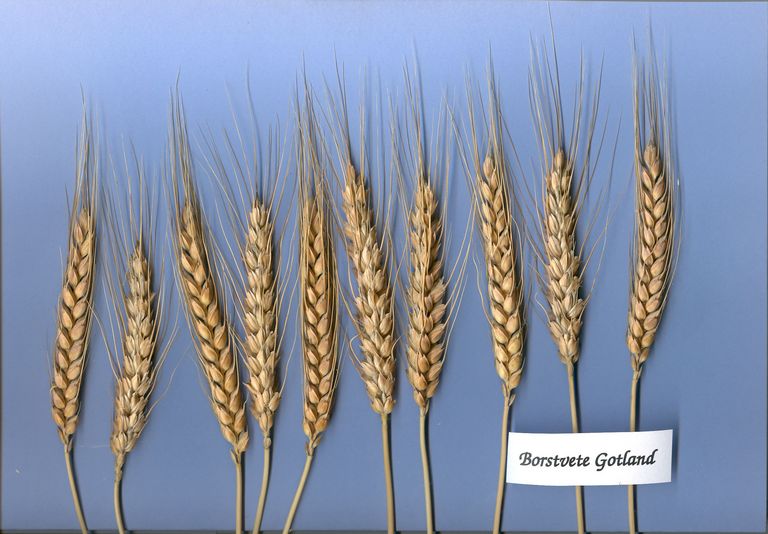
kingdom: Plantae
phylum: Tracheophyta
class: Liliopsida
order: Poales
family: Poaceae
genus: Triticum
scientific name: Triticum aestivum
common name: Common wheat
